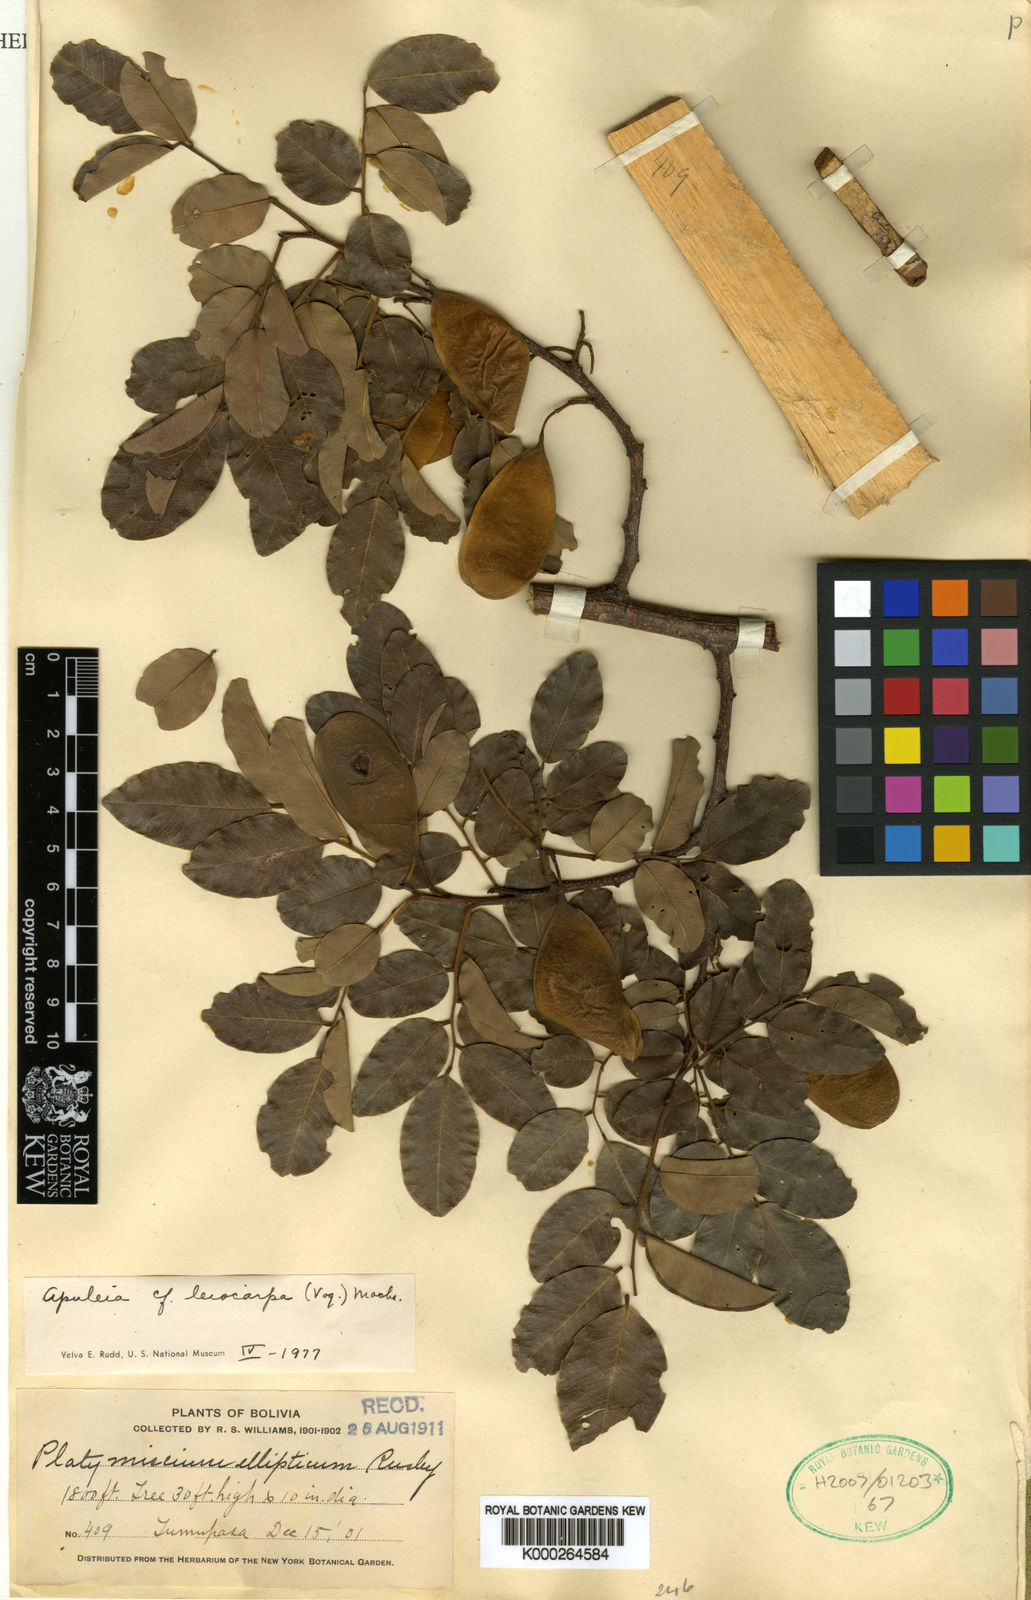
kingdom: Plantae
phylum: Tracheophyta
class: Magnoliopsida
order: Fabales
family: Fabaceae
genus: Apuleia
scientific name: Apuleia leiocarpa
